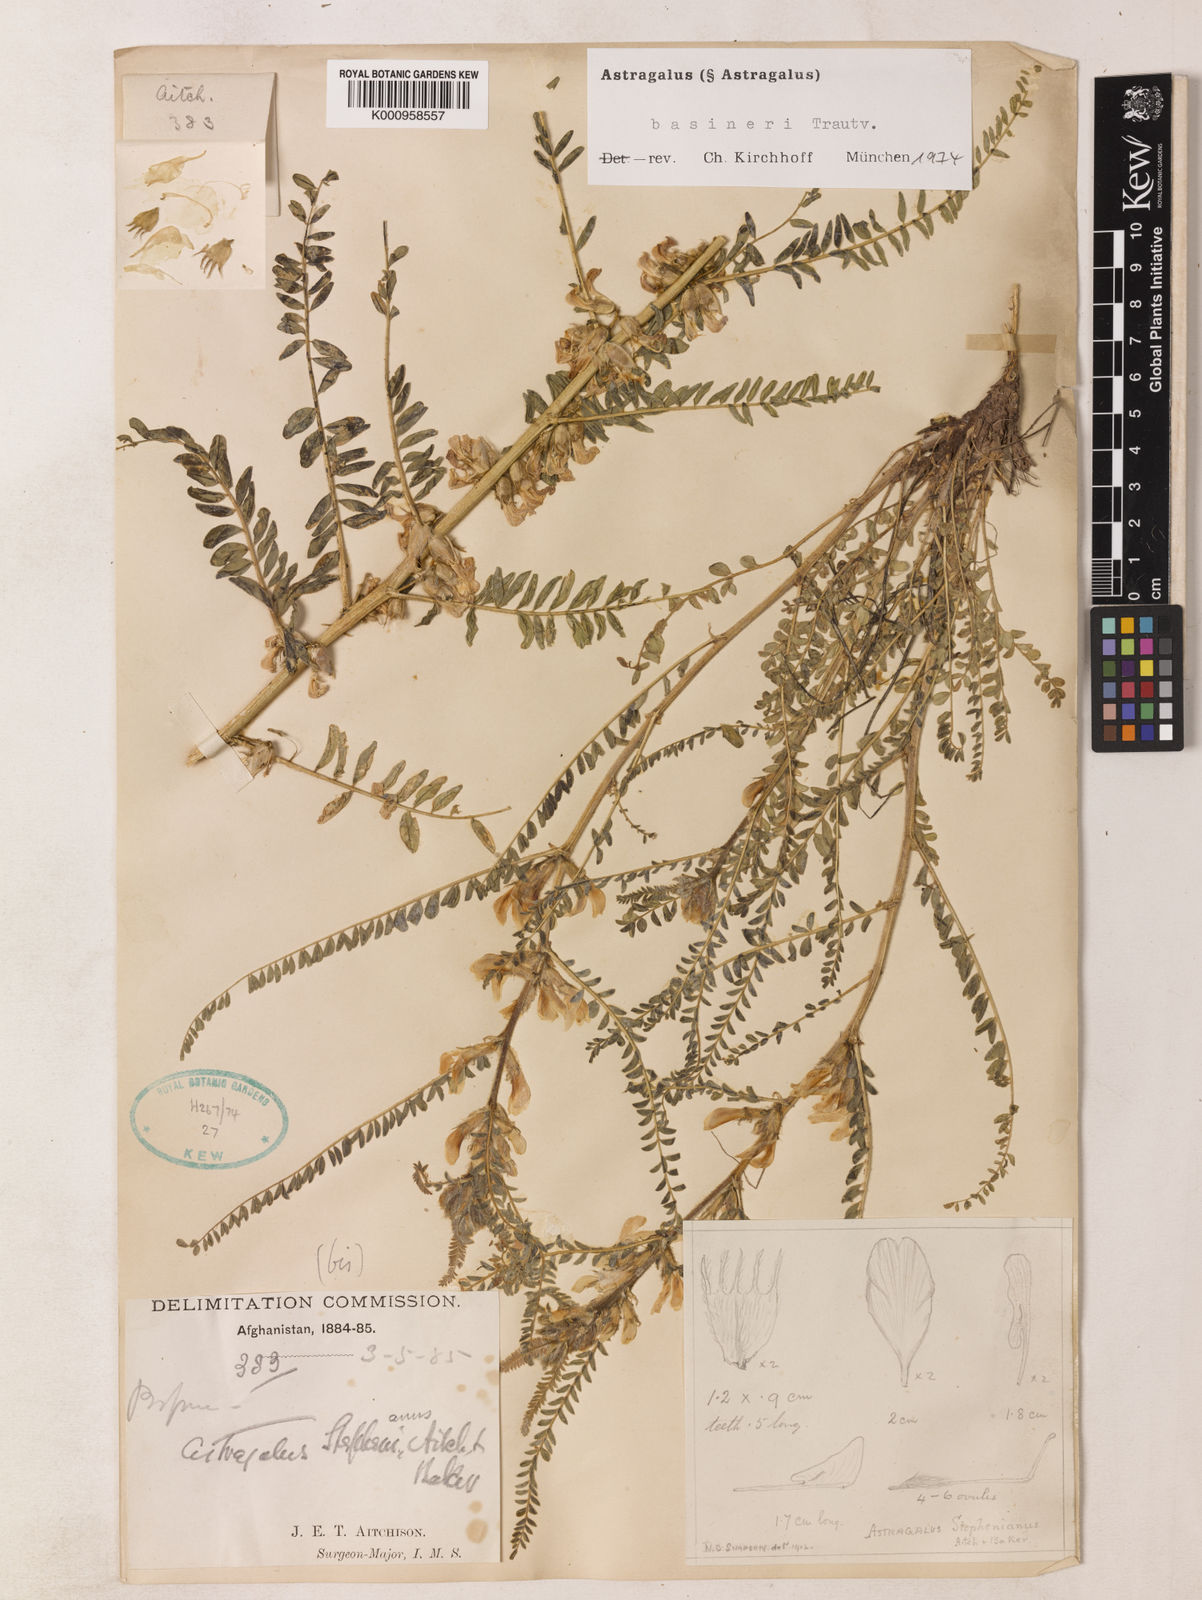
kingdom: Plantae
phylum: Tracheophyta
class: Magnoliopsida
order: Fabales
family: Fabaceae
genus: Astragalus
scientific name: Astragalus basineri
